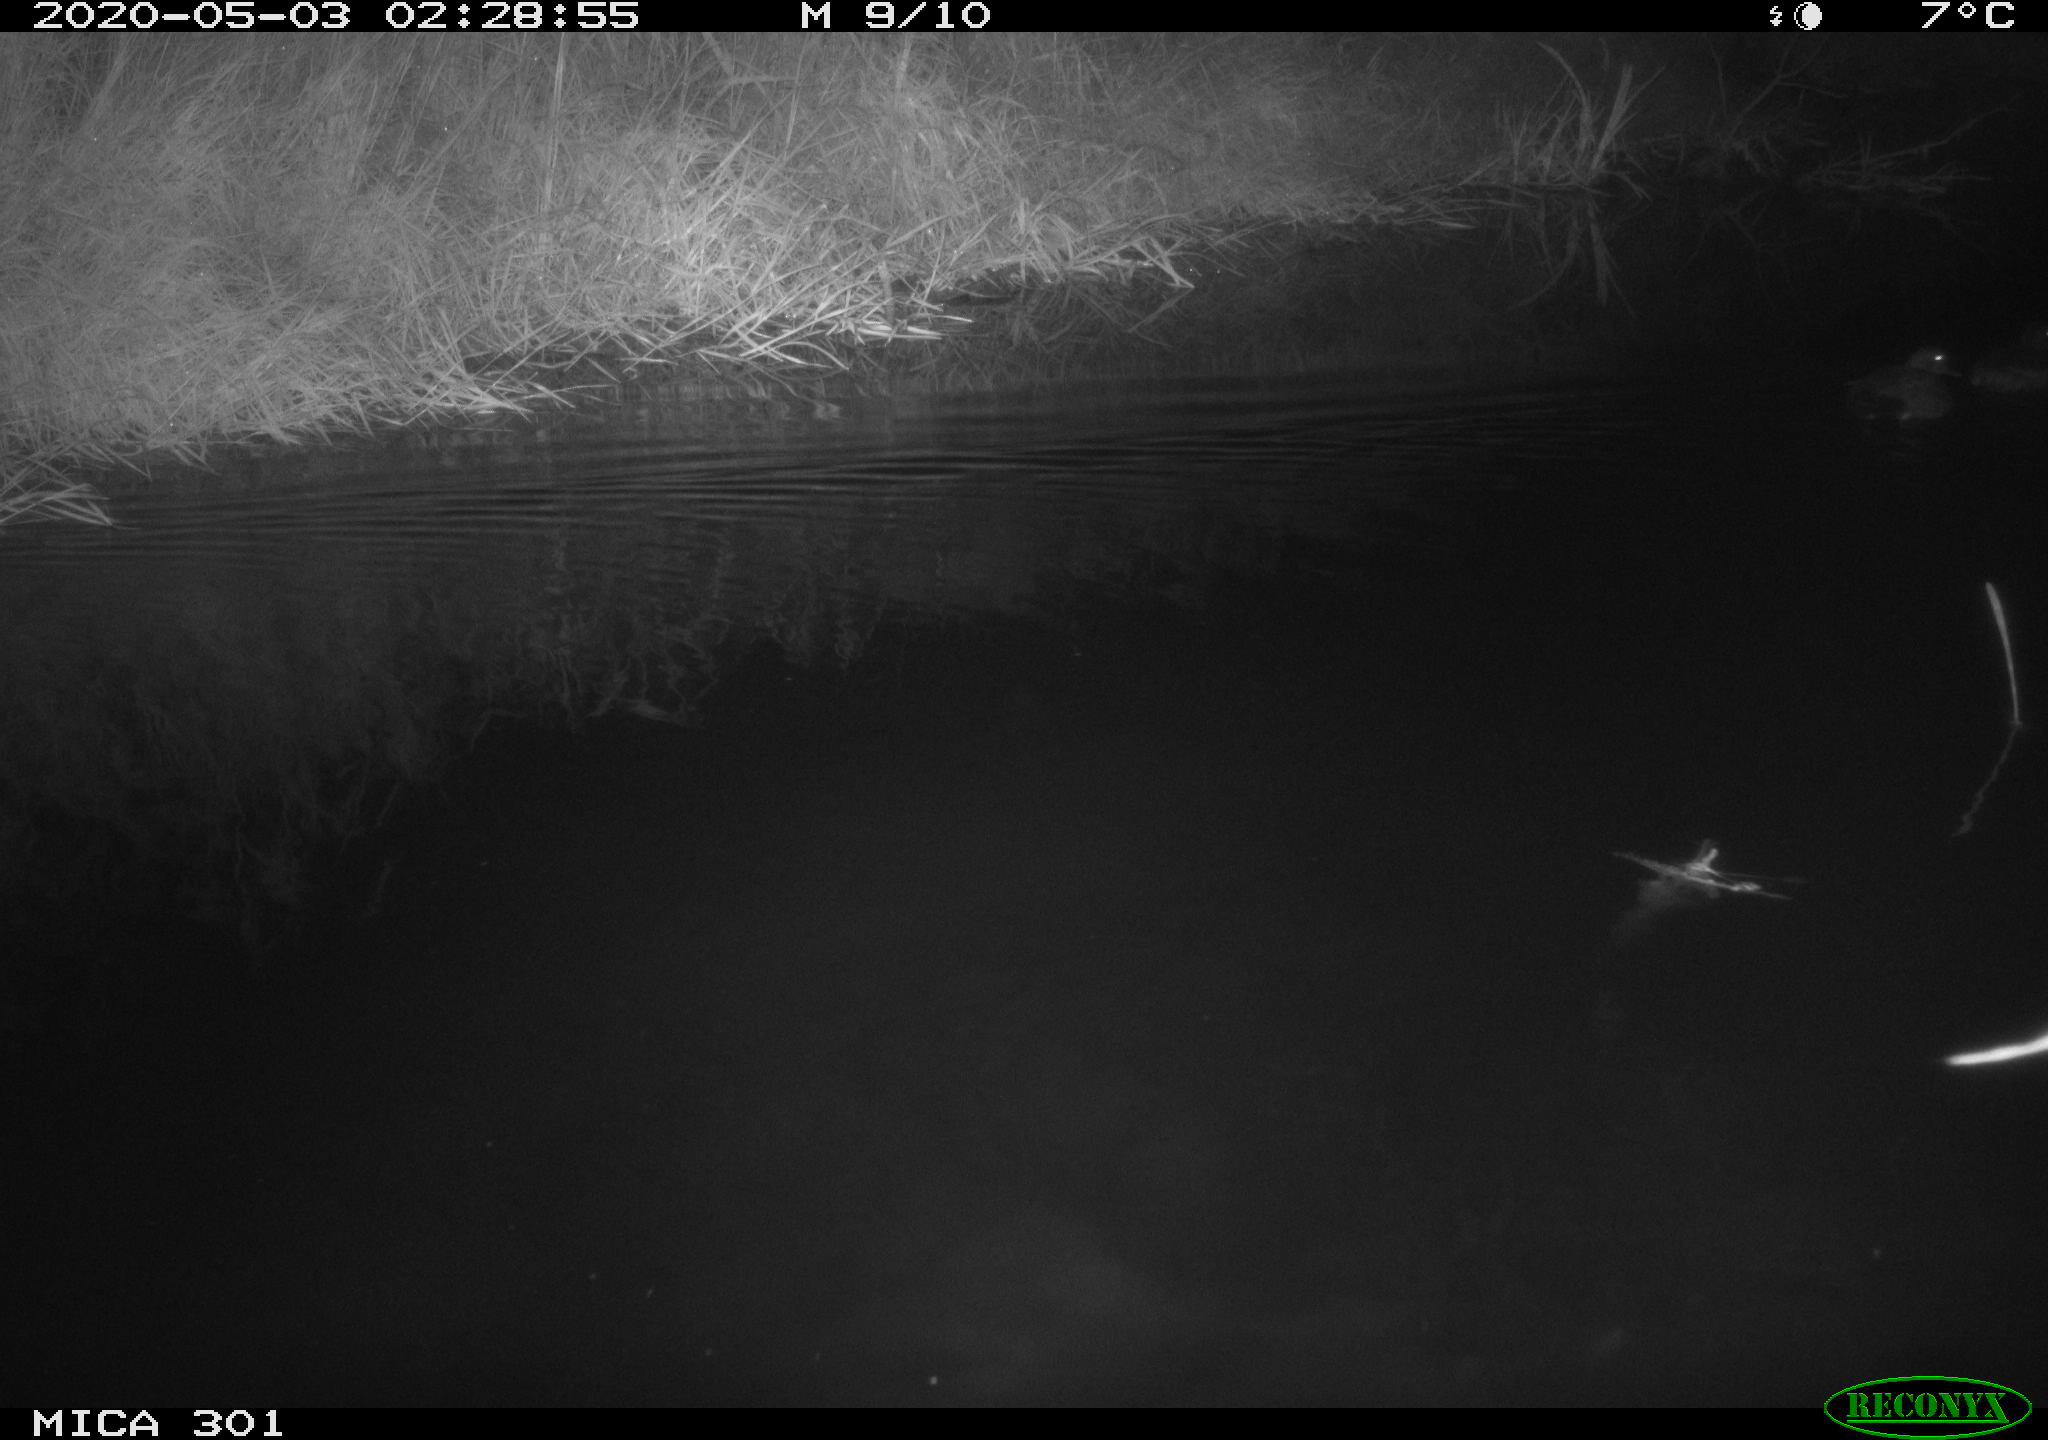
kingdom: Animalia
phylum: Chordata
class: Aves
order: Anseriformes
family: Anatidae
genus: Mareca
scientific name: Mareca strepera
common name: Gadwall
